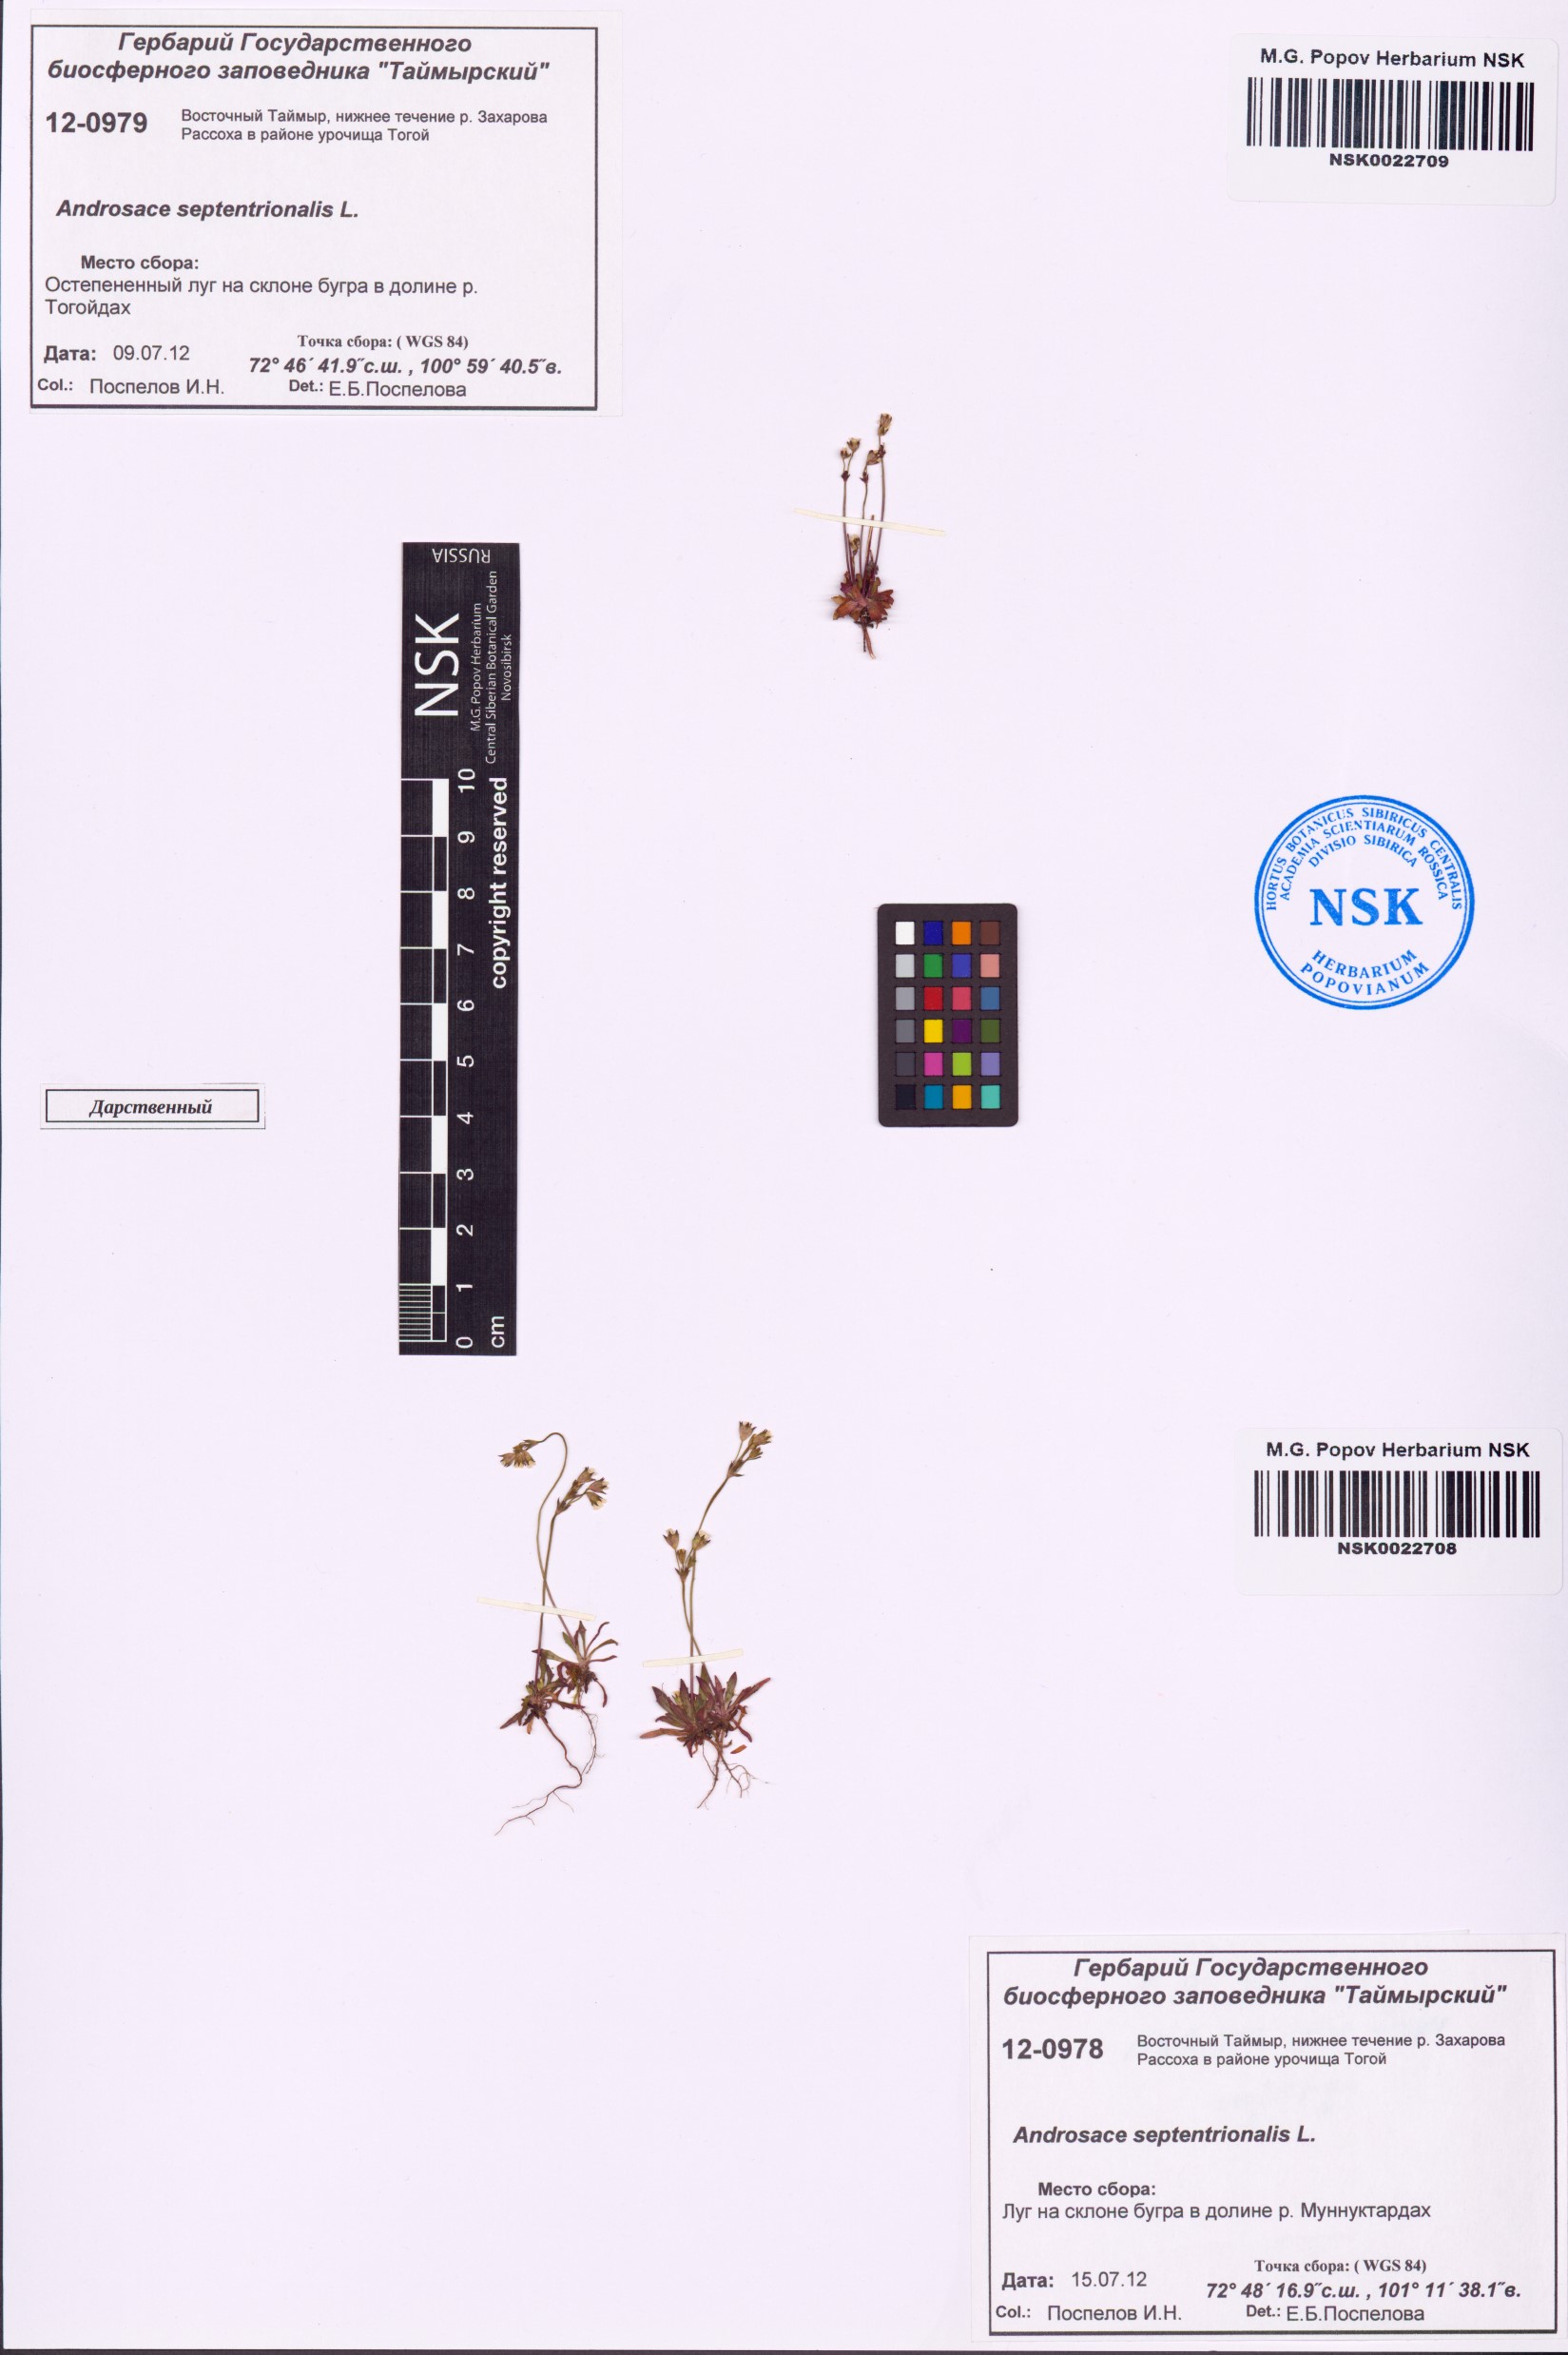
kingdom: Plantae
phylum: Tracheophyta
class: Magnoliopsida
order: Ericales
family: Primulaceae
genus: Androsace
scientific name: Androsace septentrionalis
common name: Hairy northern fairy-candelabra
